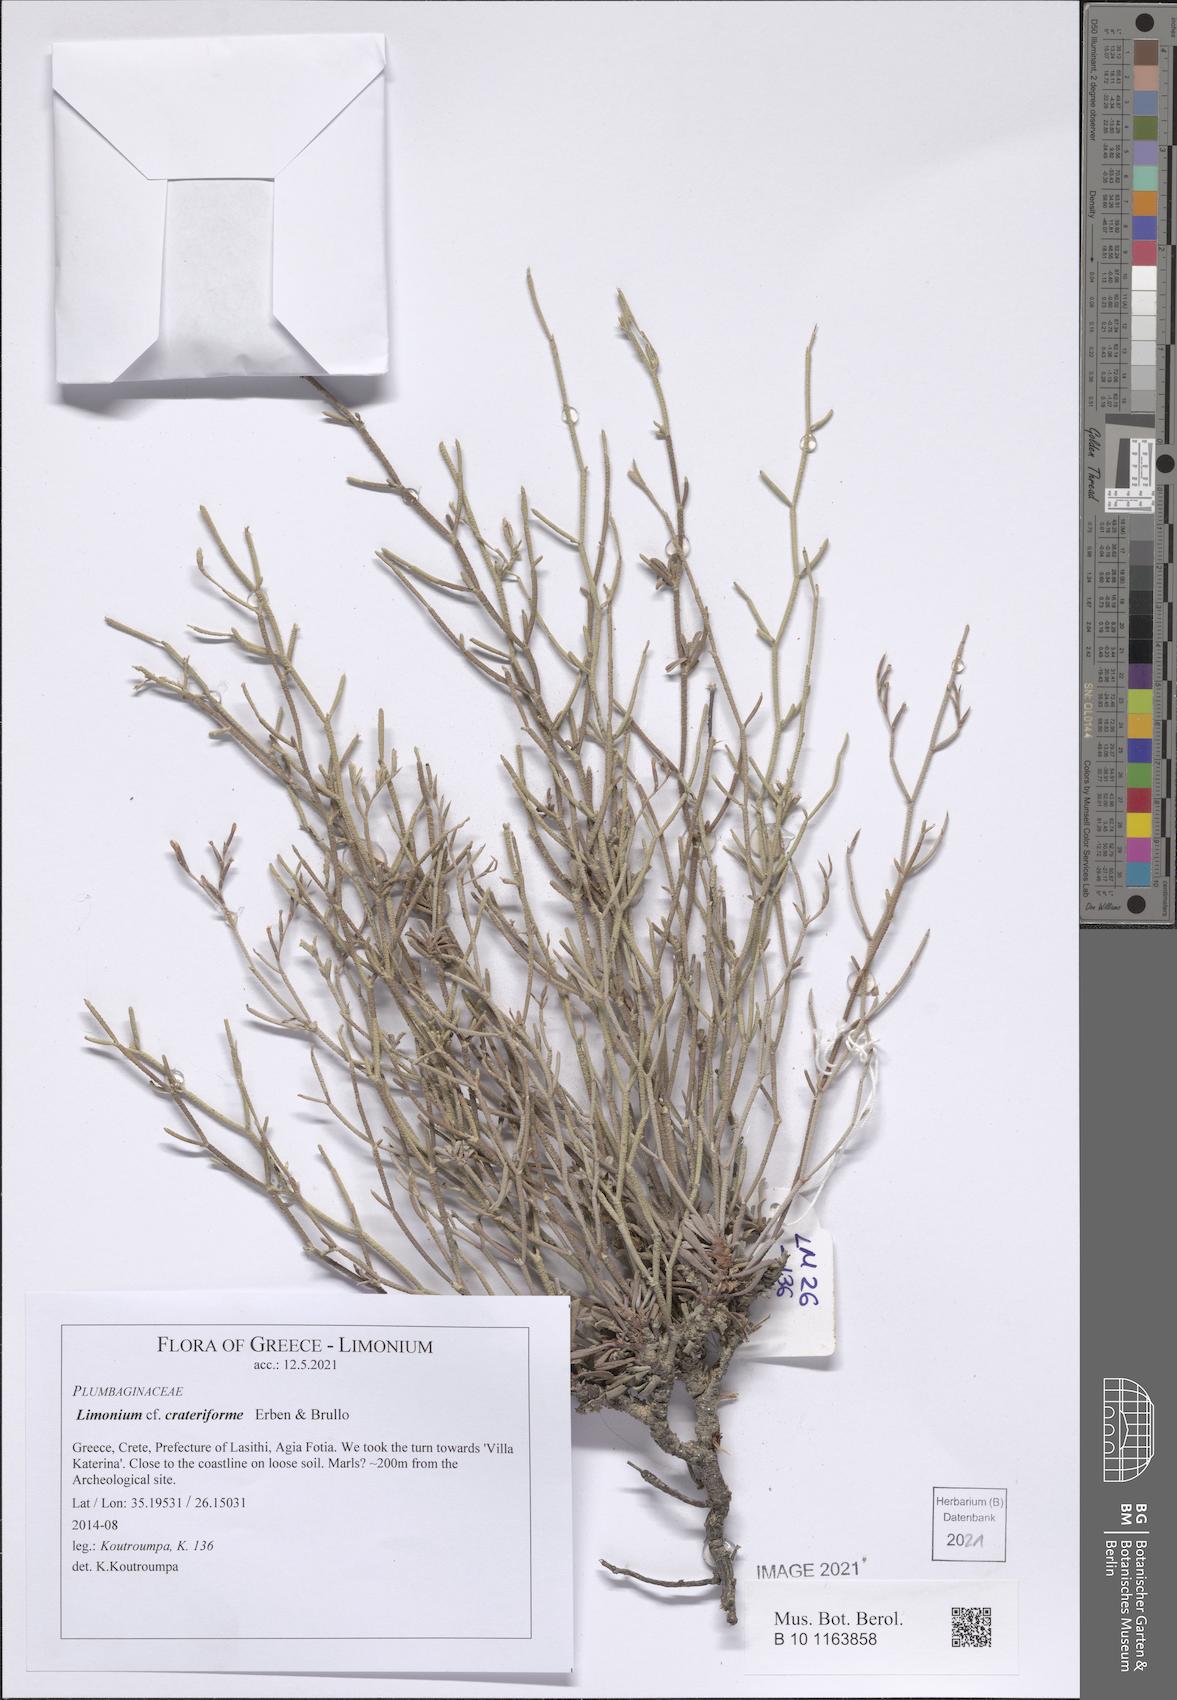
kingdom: Plantae
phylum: Tracheophyta
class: Magnoliopsida
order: Caryophyllales
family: Plumbaginaceae
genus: Limonium
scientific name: Limonium crateriforme
